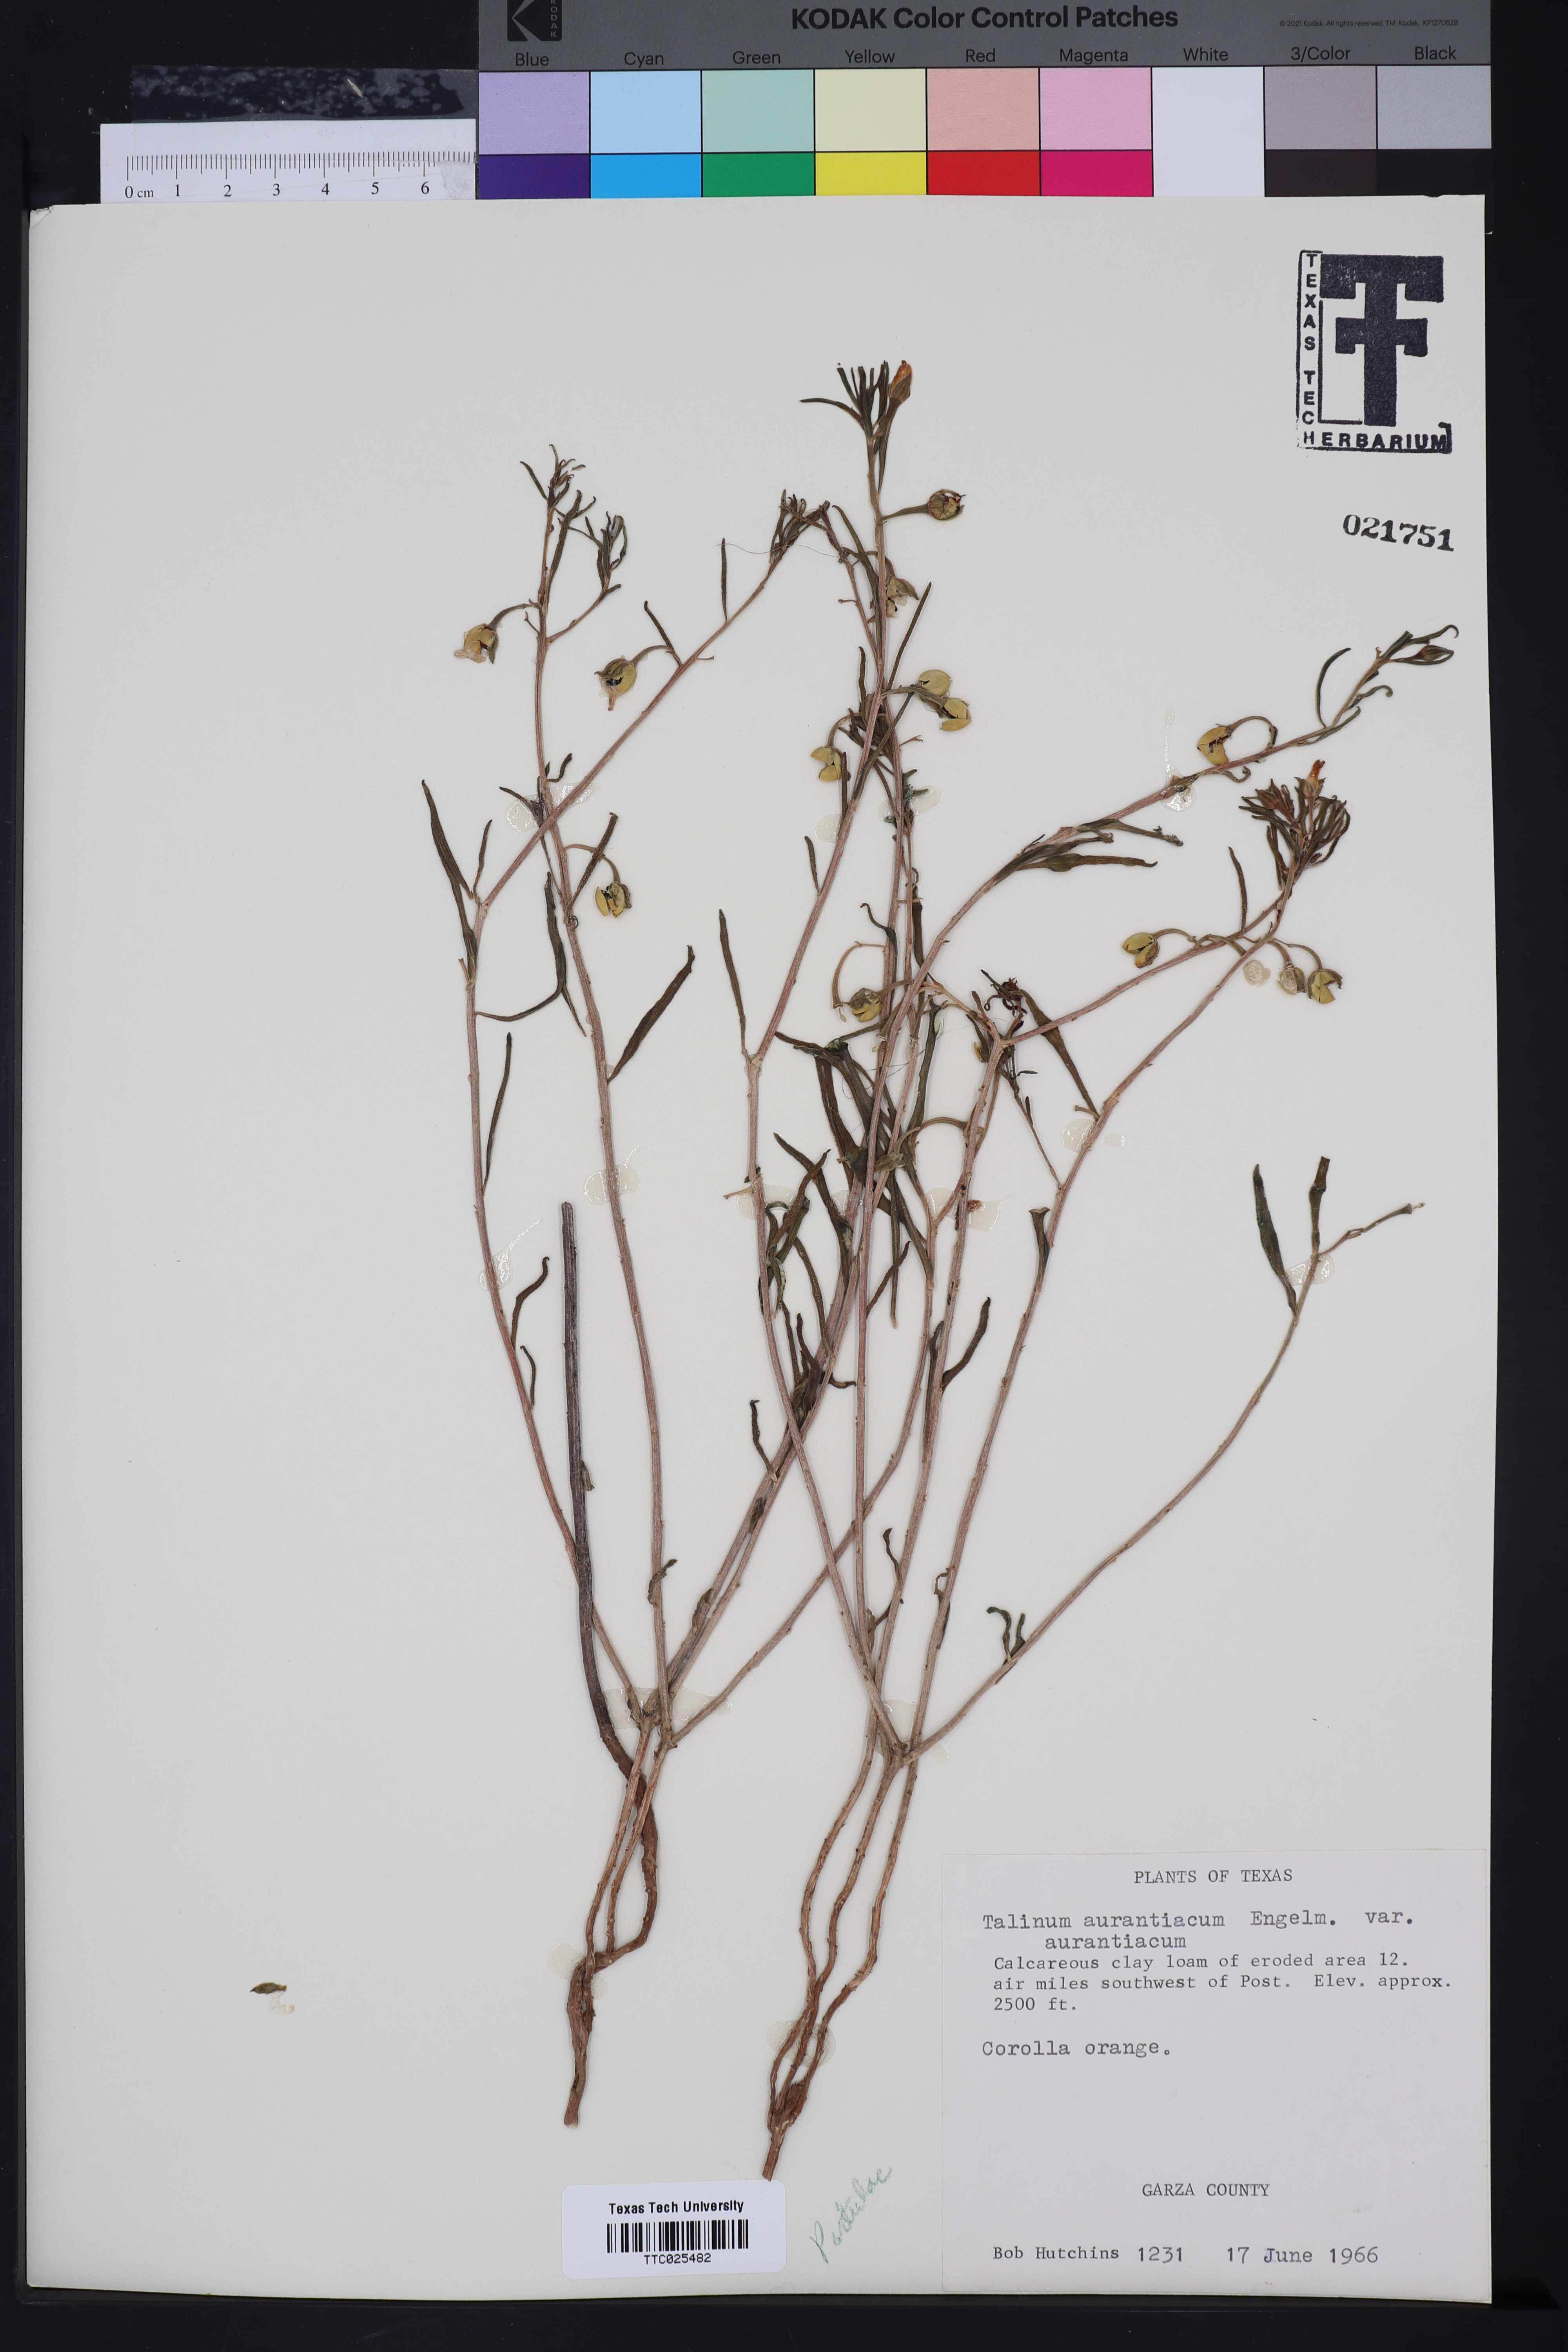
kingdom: Plantae
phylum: Tracheophyta
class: Magnoliopsida
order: Caryophyllales
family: Montiaceae
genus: Phemeranthus
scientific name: Phemeranthus aurantiacus
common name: Orange fameflower
